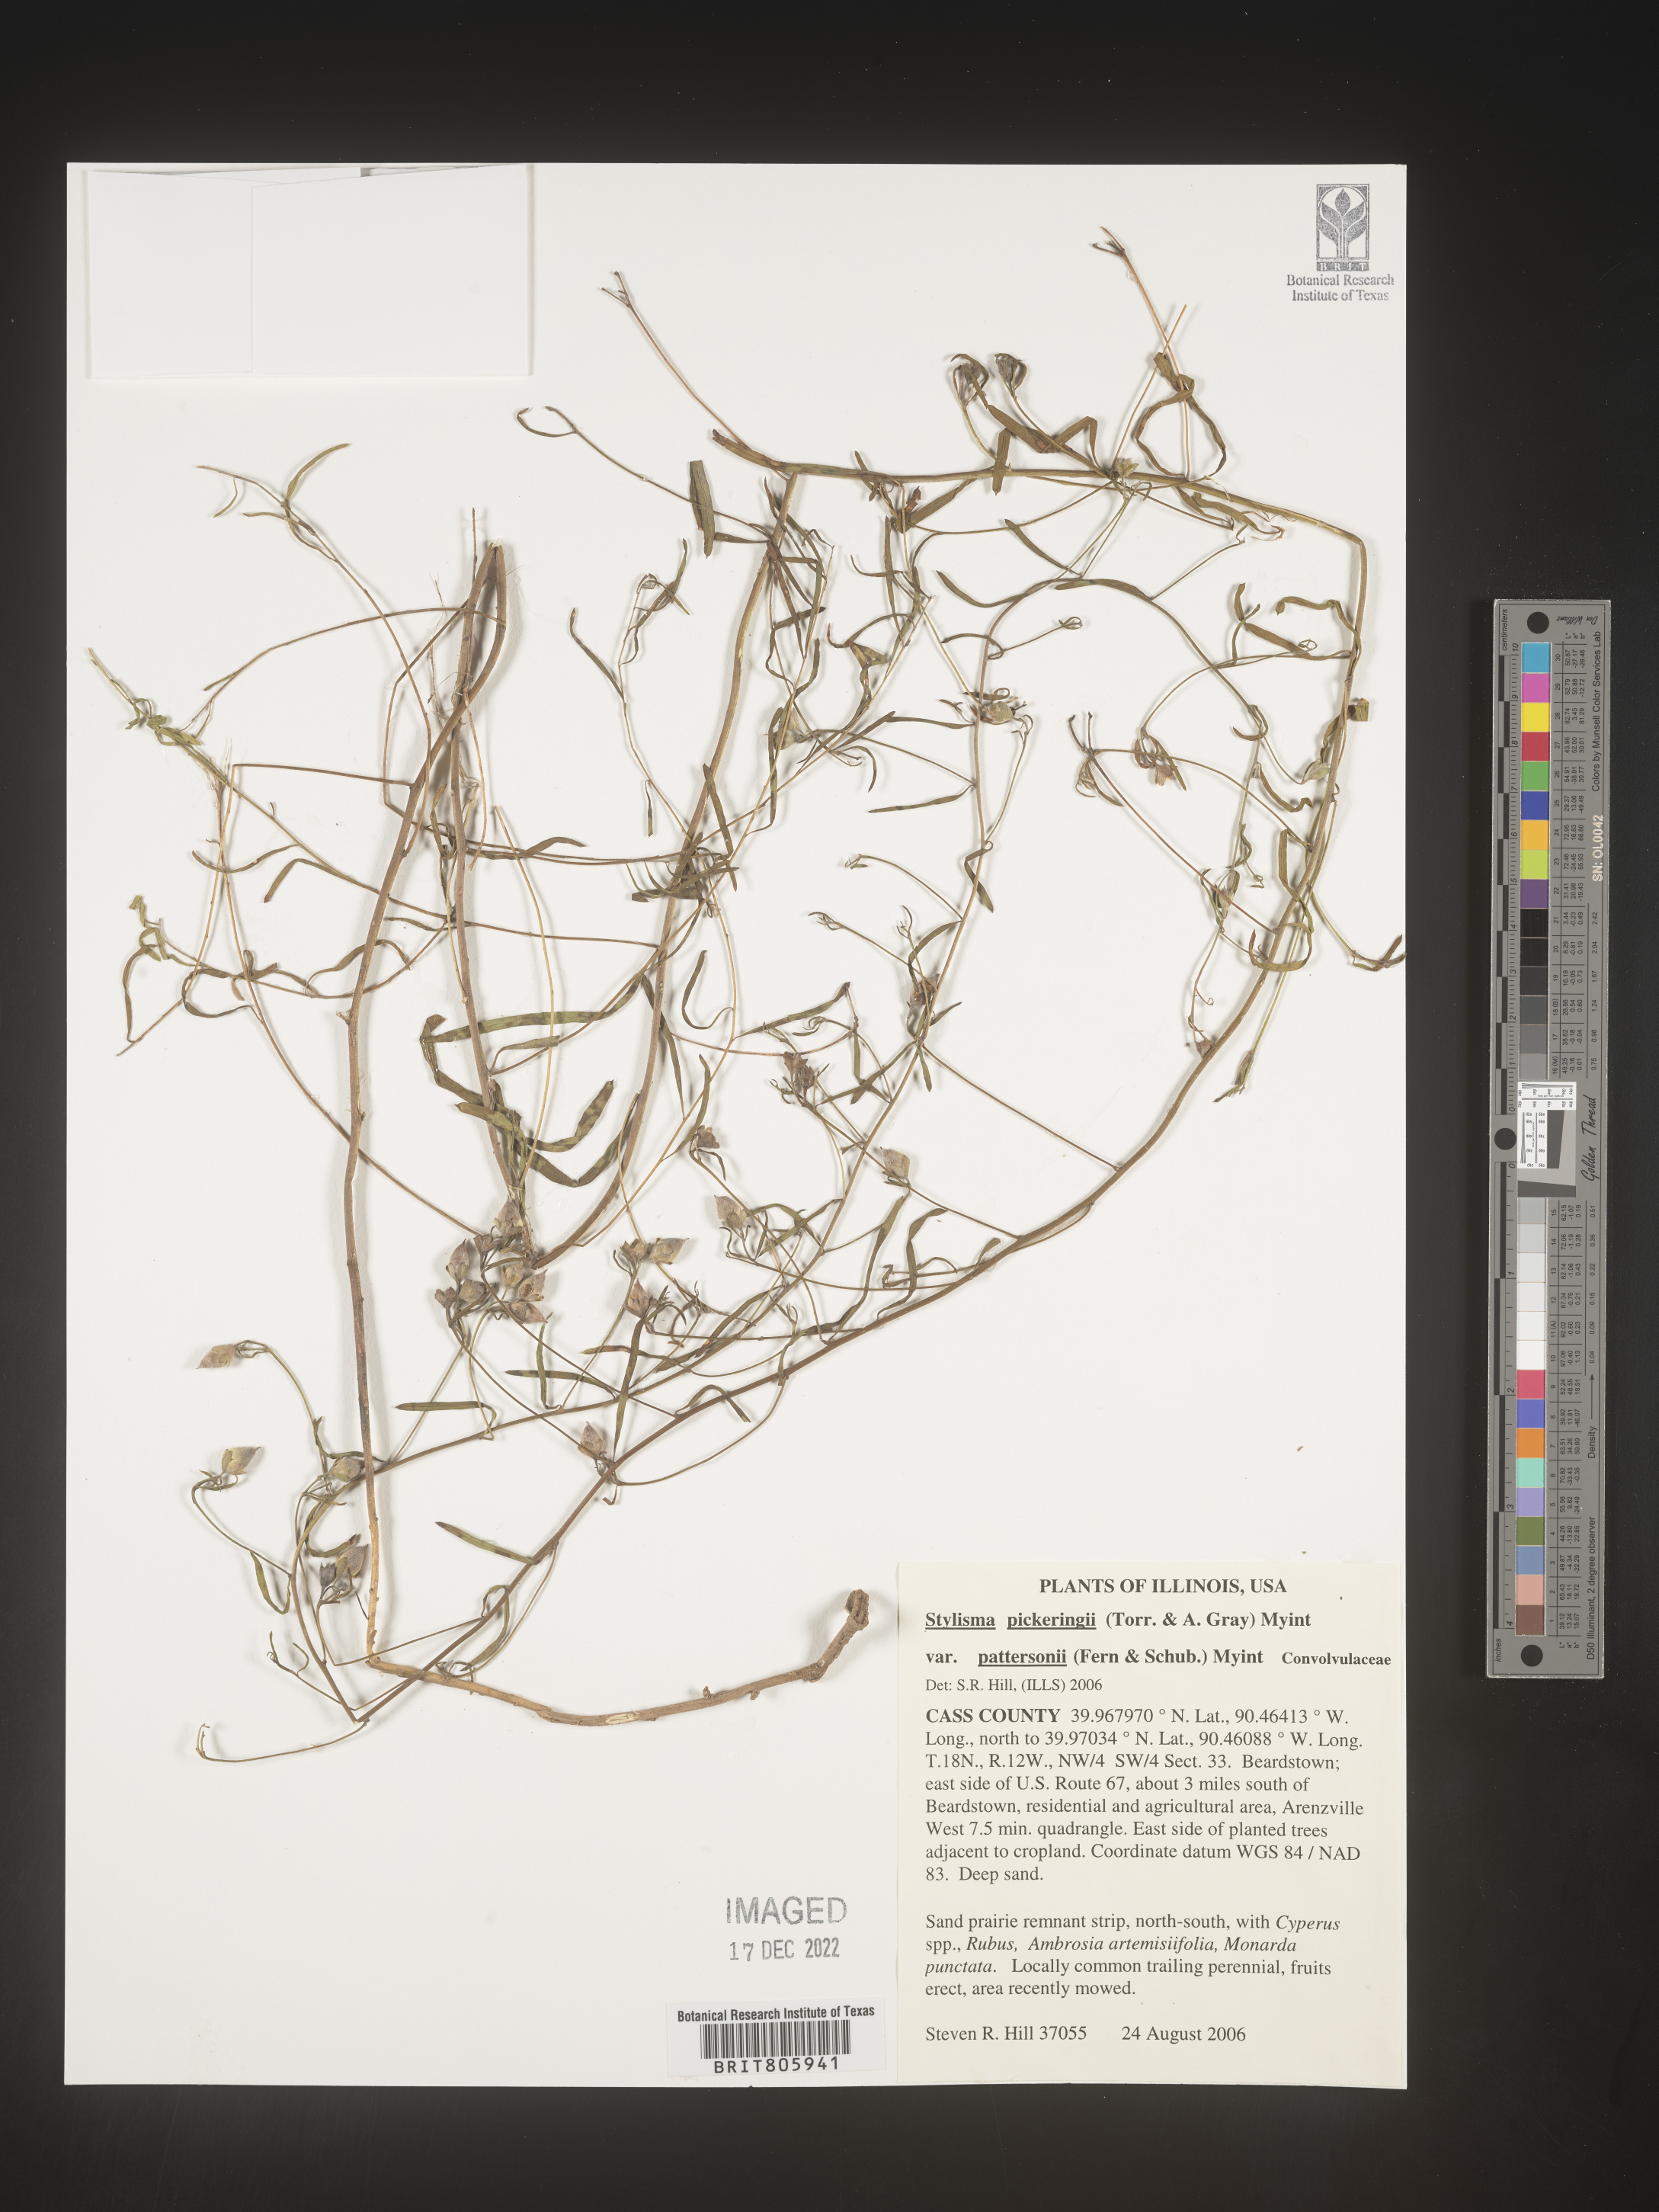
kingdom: Plantae
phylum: Tracheophyta
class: Magnoliopsida
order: Solanales
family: Convolvulaceae
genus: Stylisma
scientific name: Stylisma
